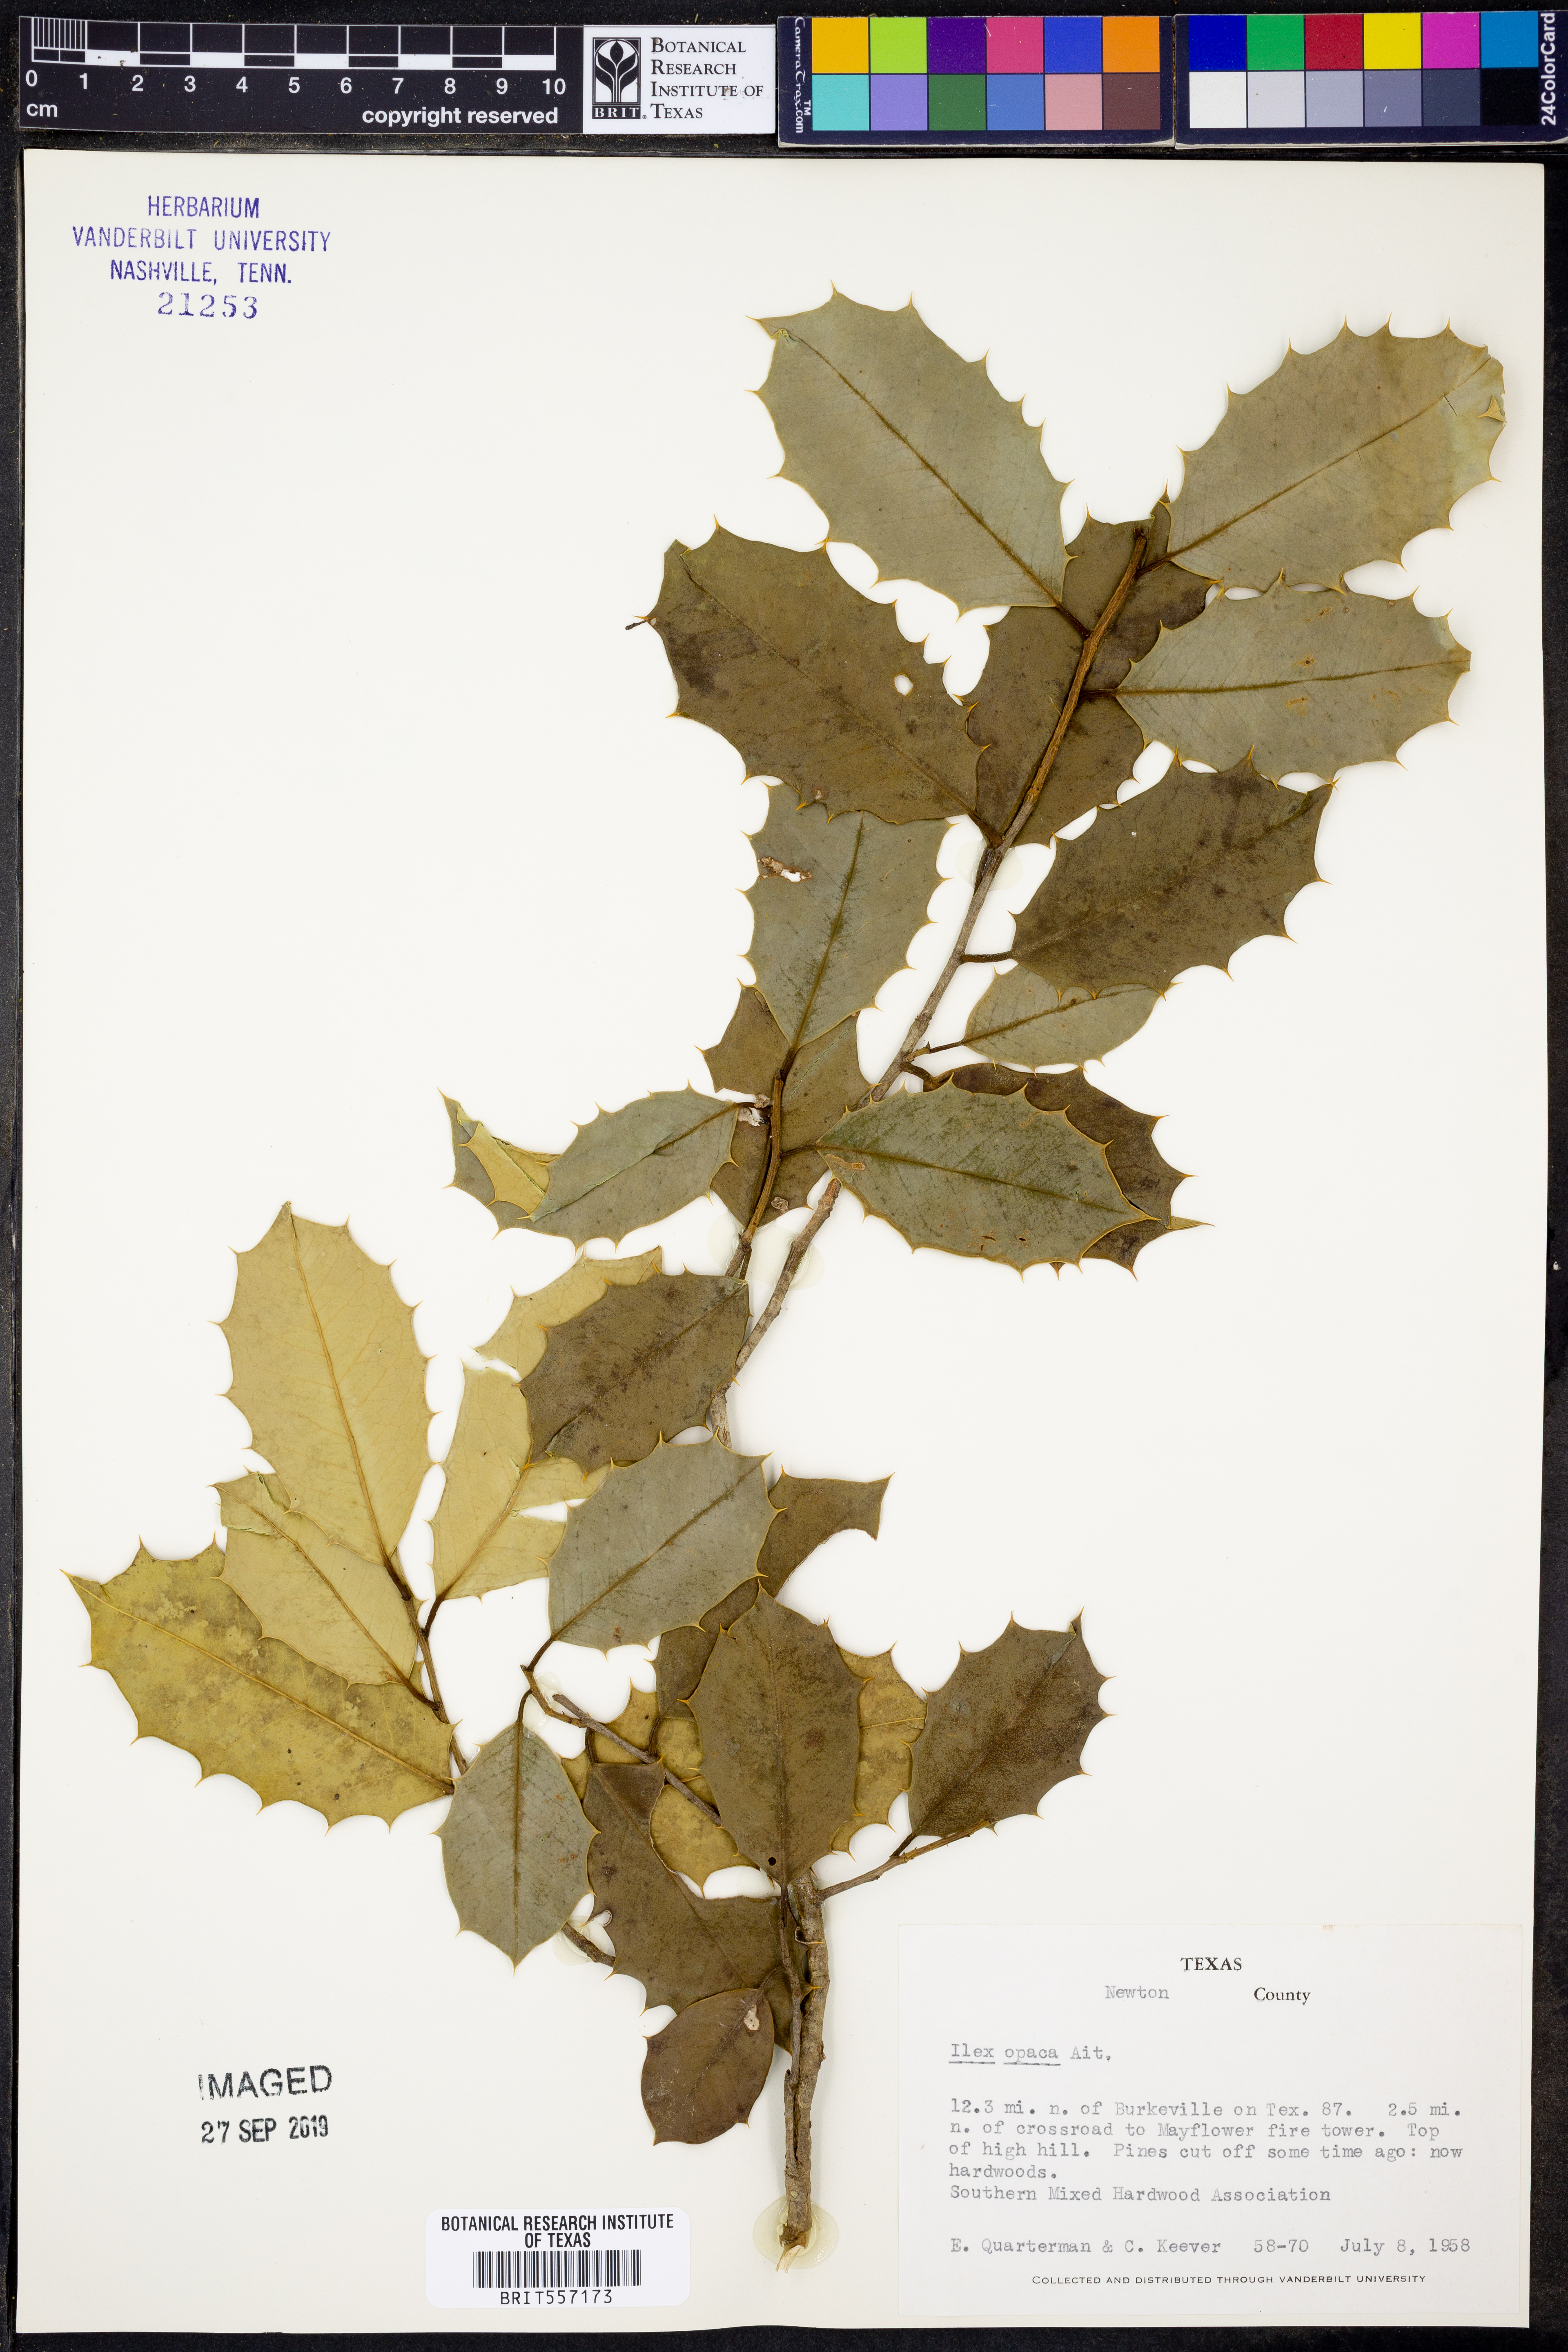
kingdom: Plantae
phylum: Tracheophyta
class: Magnoliopsida
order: Aquifoliales
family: Aquifoliaceae
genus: Ilex
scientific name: Ilex opaca
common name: American holly
